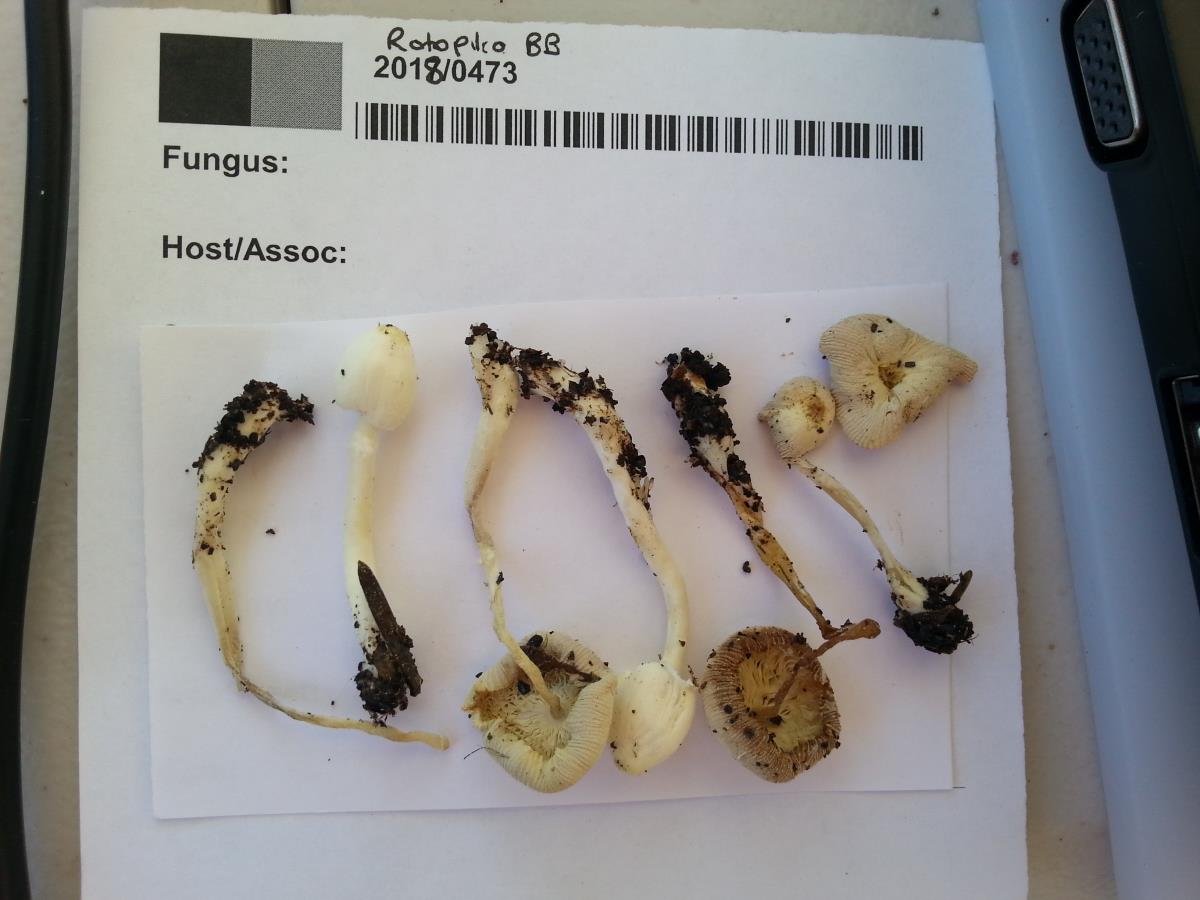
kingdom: Fungi
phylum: Basidiomycota
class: Agaricomycetes
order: Agaricales
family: Agaricaceae
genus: Leucocoprinus
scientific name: Leucocoprinus straminellus
